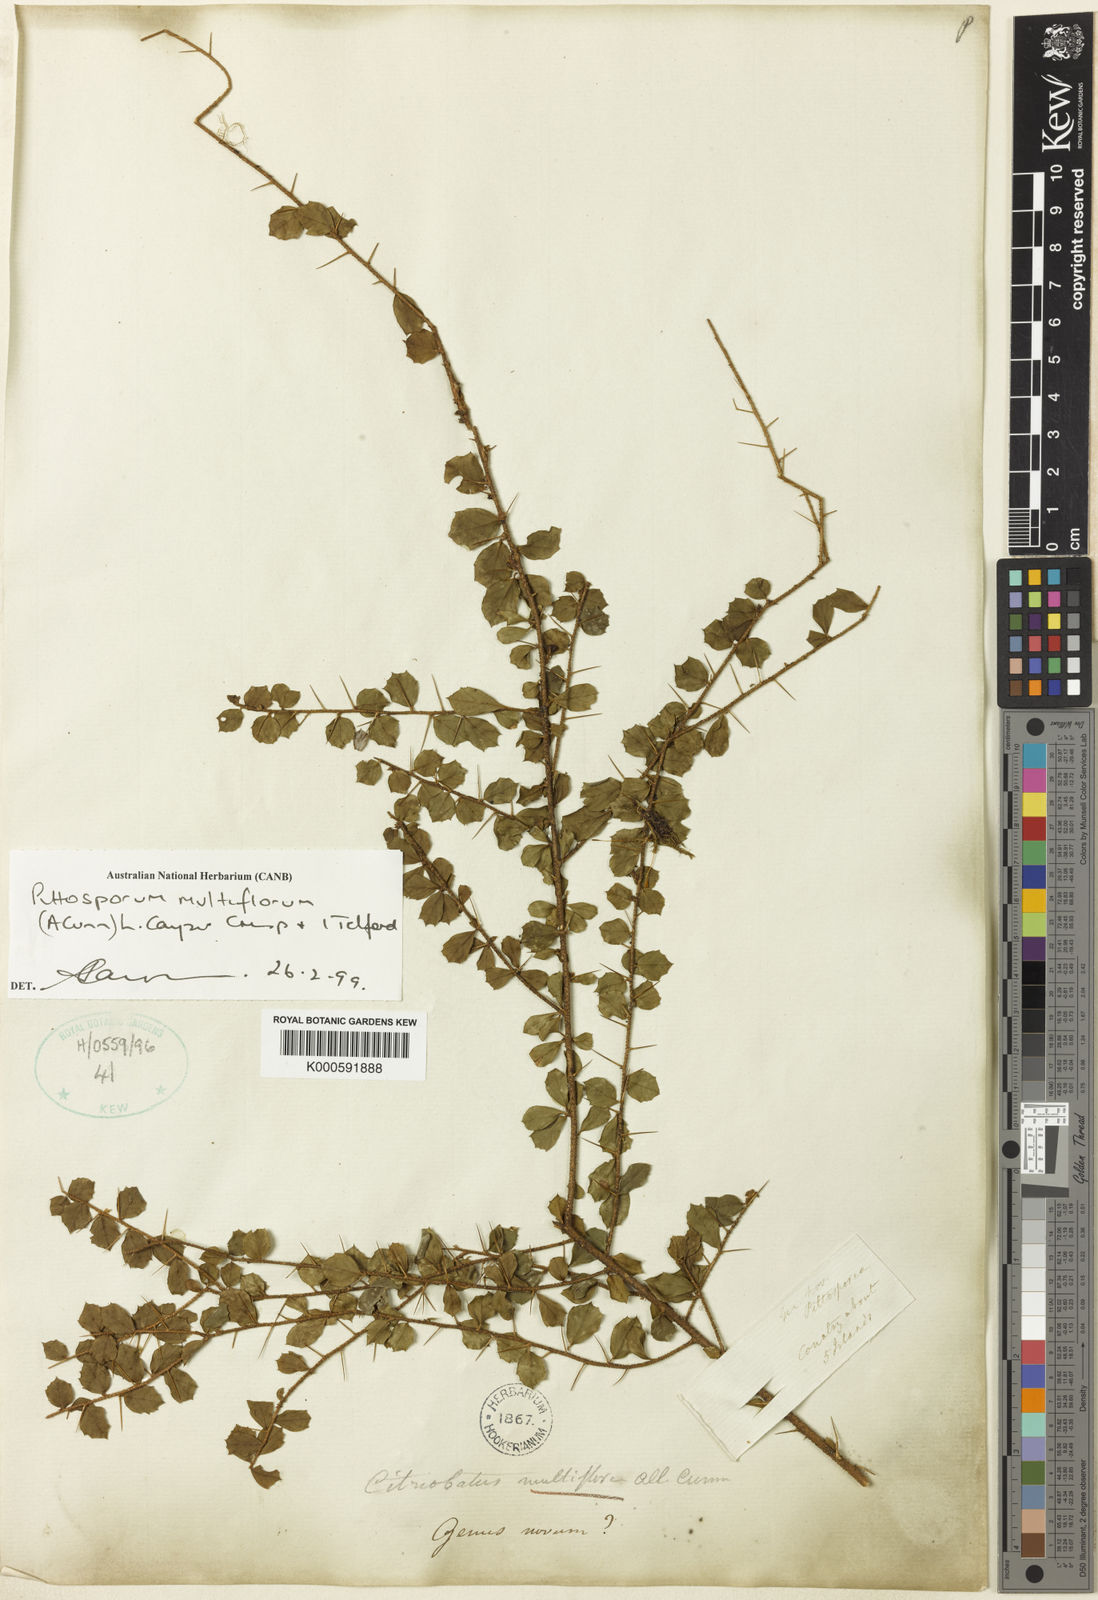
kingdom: Plantae
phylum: Tracheophyta
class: Magnoliopsida
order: Apiales
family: Pittosporaceae
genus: Pittosporum
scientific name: Pittosporum multiflorum
